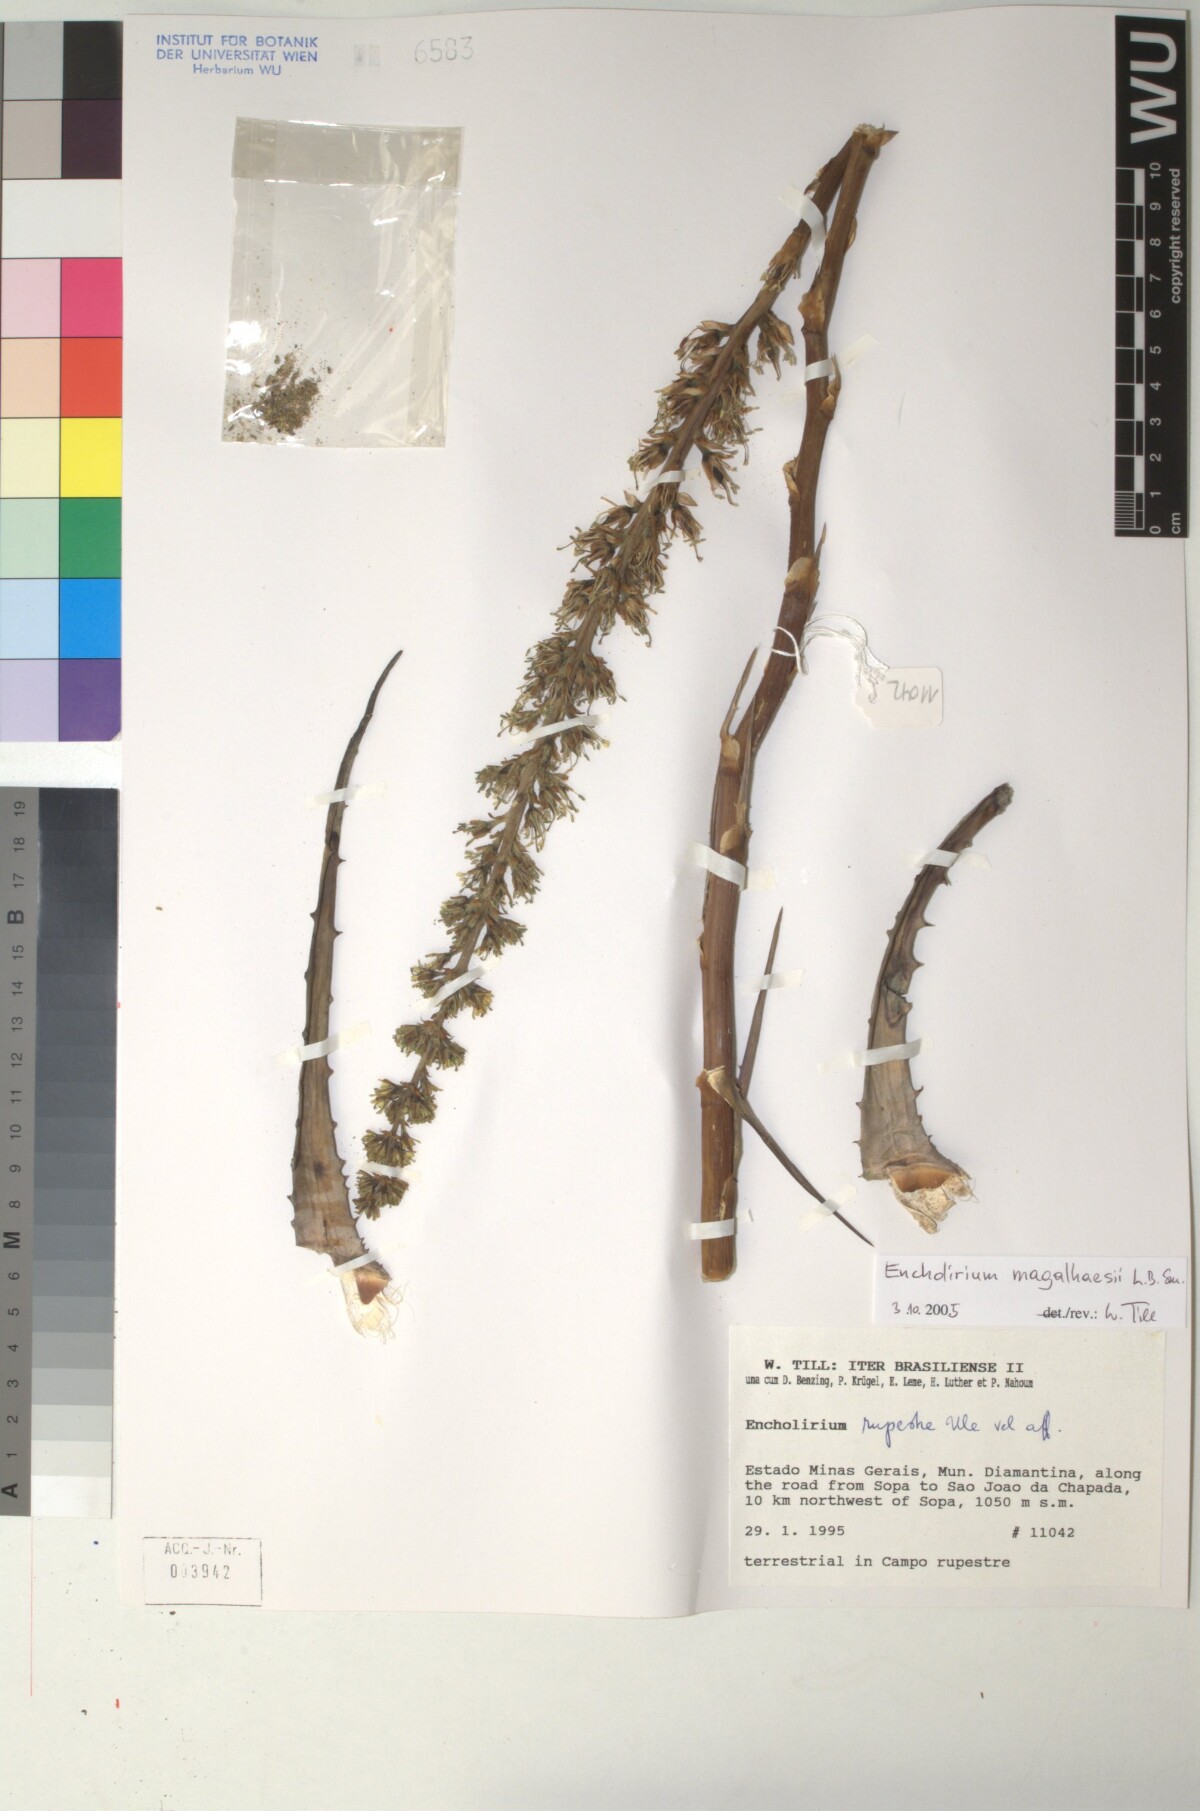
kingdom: Plantae
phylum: Tracheophyta
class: Liliopsida
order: Poales
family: Bromeliaceae
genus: Encholirium
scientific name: Encholirium magalhaesii
